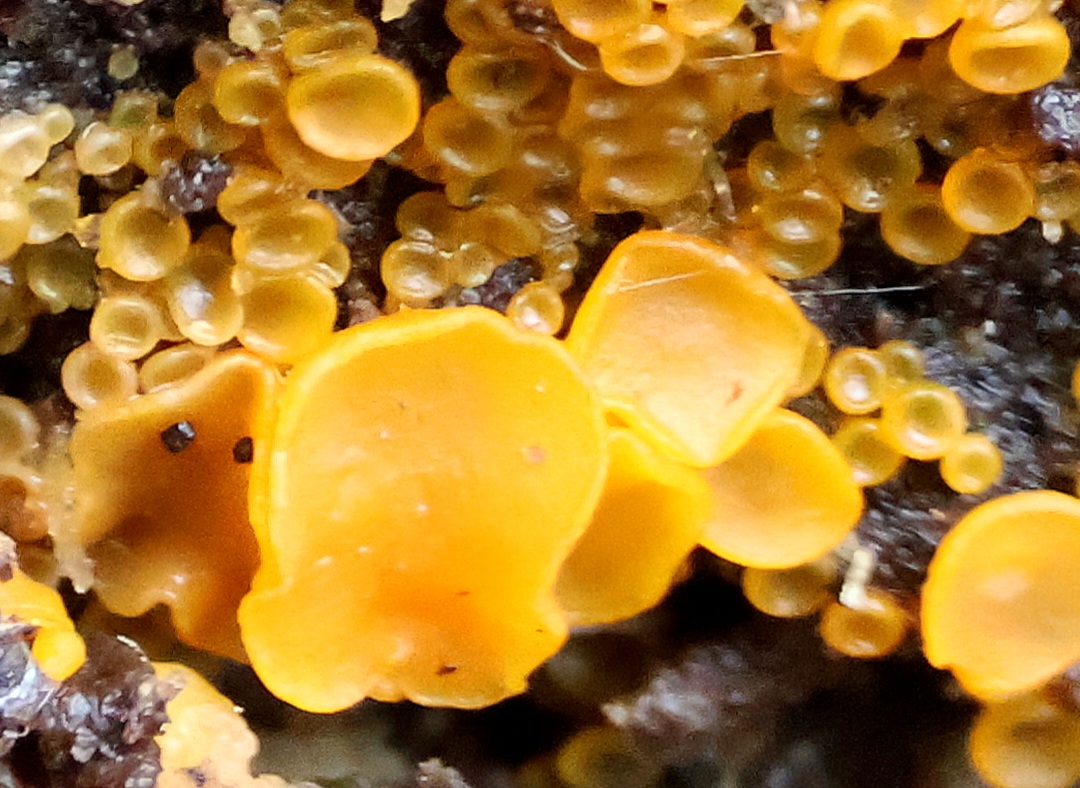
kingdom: Fungi
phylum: Ascomycota
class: Orbiliomycetes
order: Orbiliales
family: Orbiliaceae
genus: Orbilia
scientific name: Orbilia
